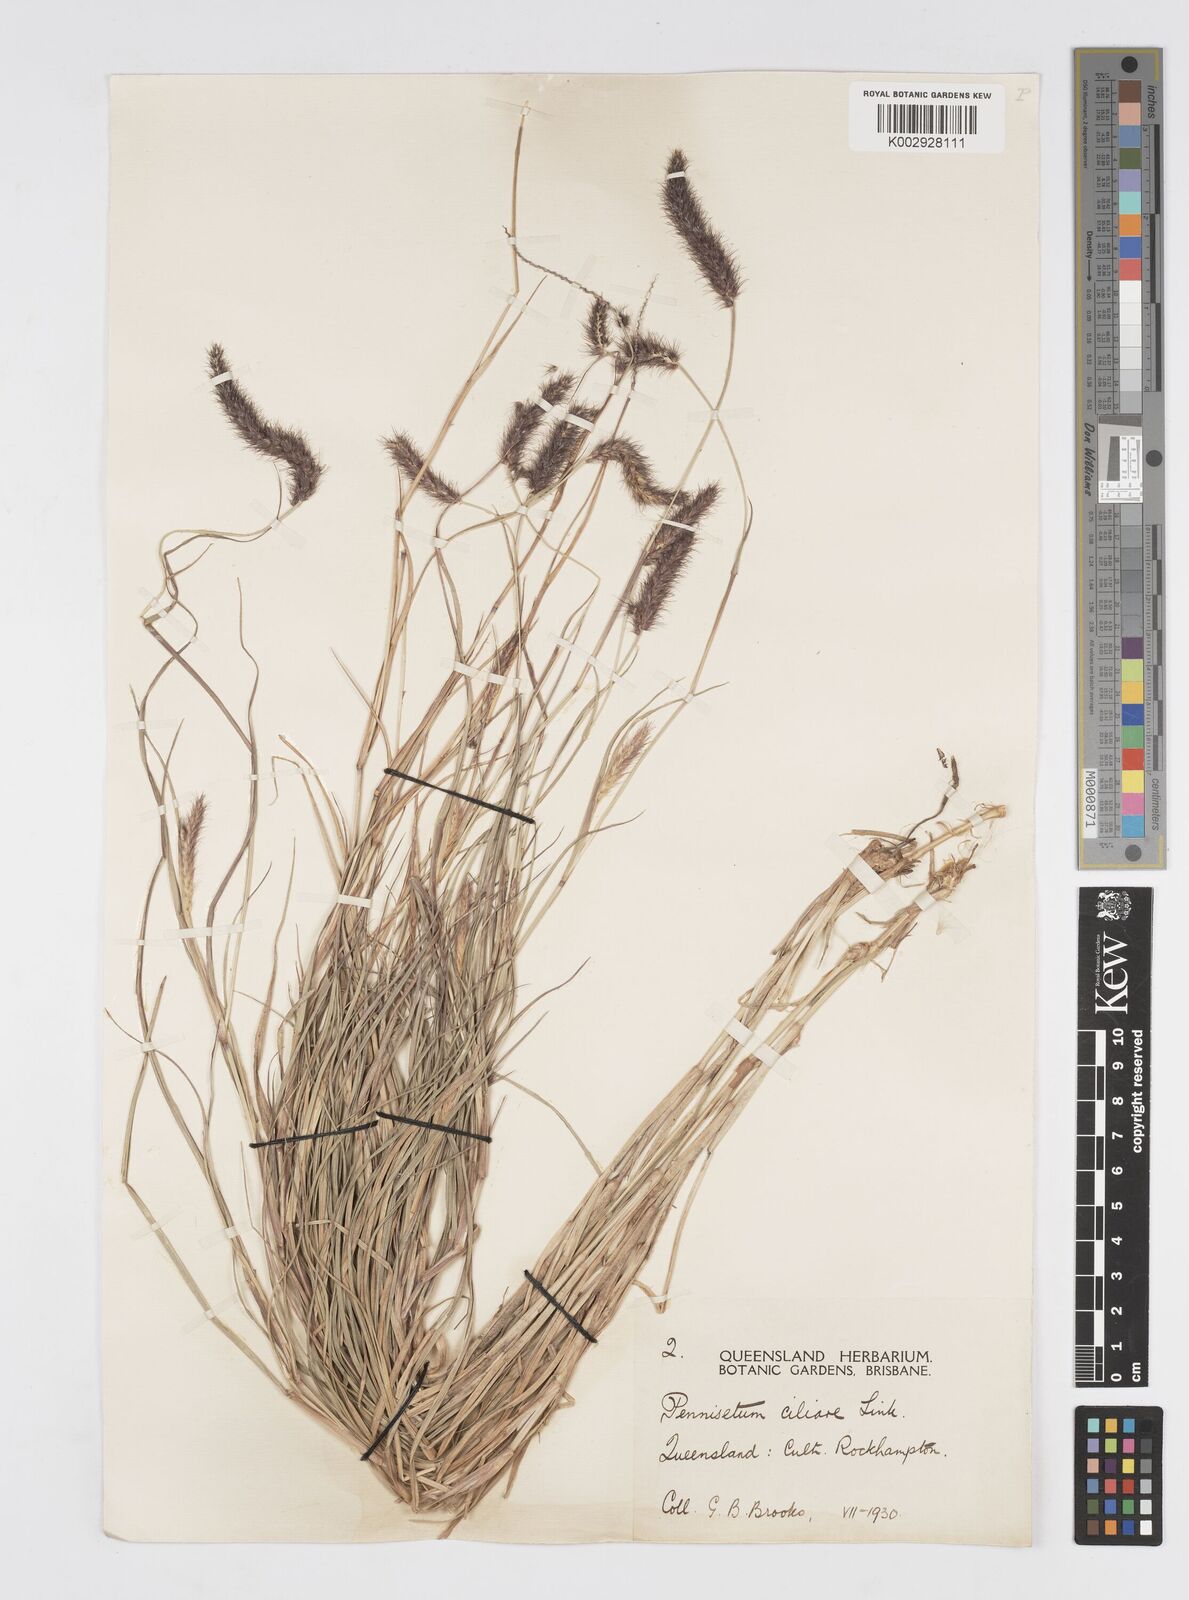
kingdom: Plantae
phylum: Tracheophyta
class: Liliopsida
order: Poales
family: Poaceae
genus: Cenchrus
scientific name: Cenchrus ciliaris
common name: Buffelgrass
